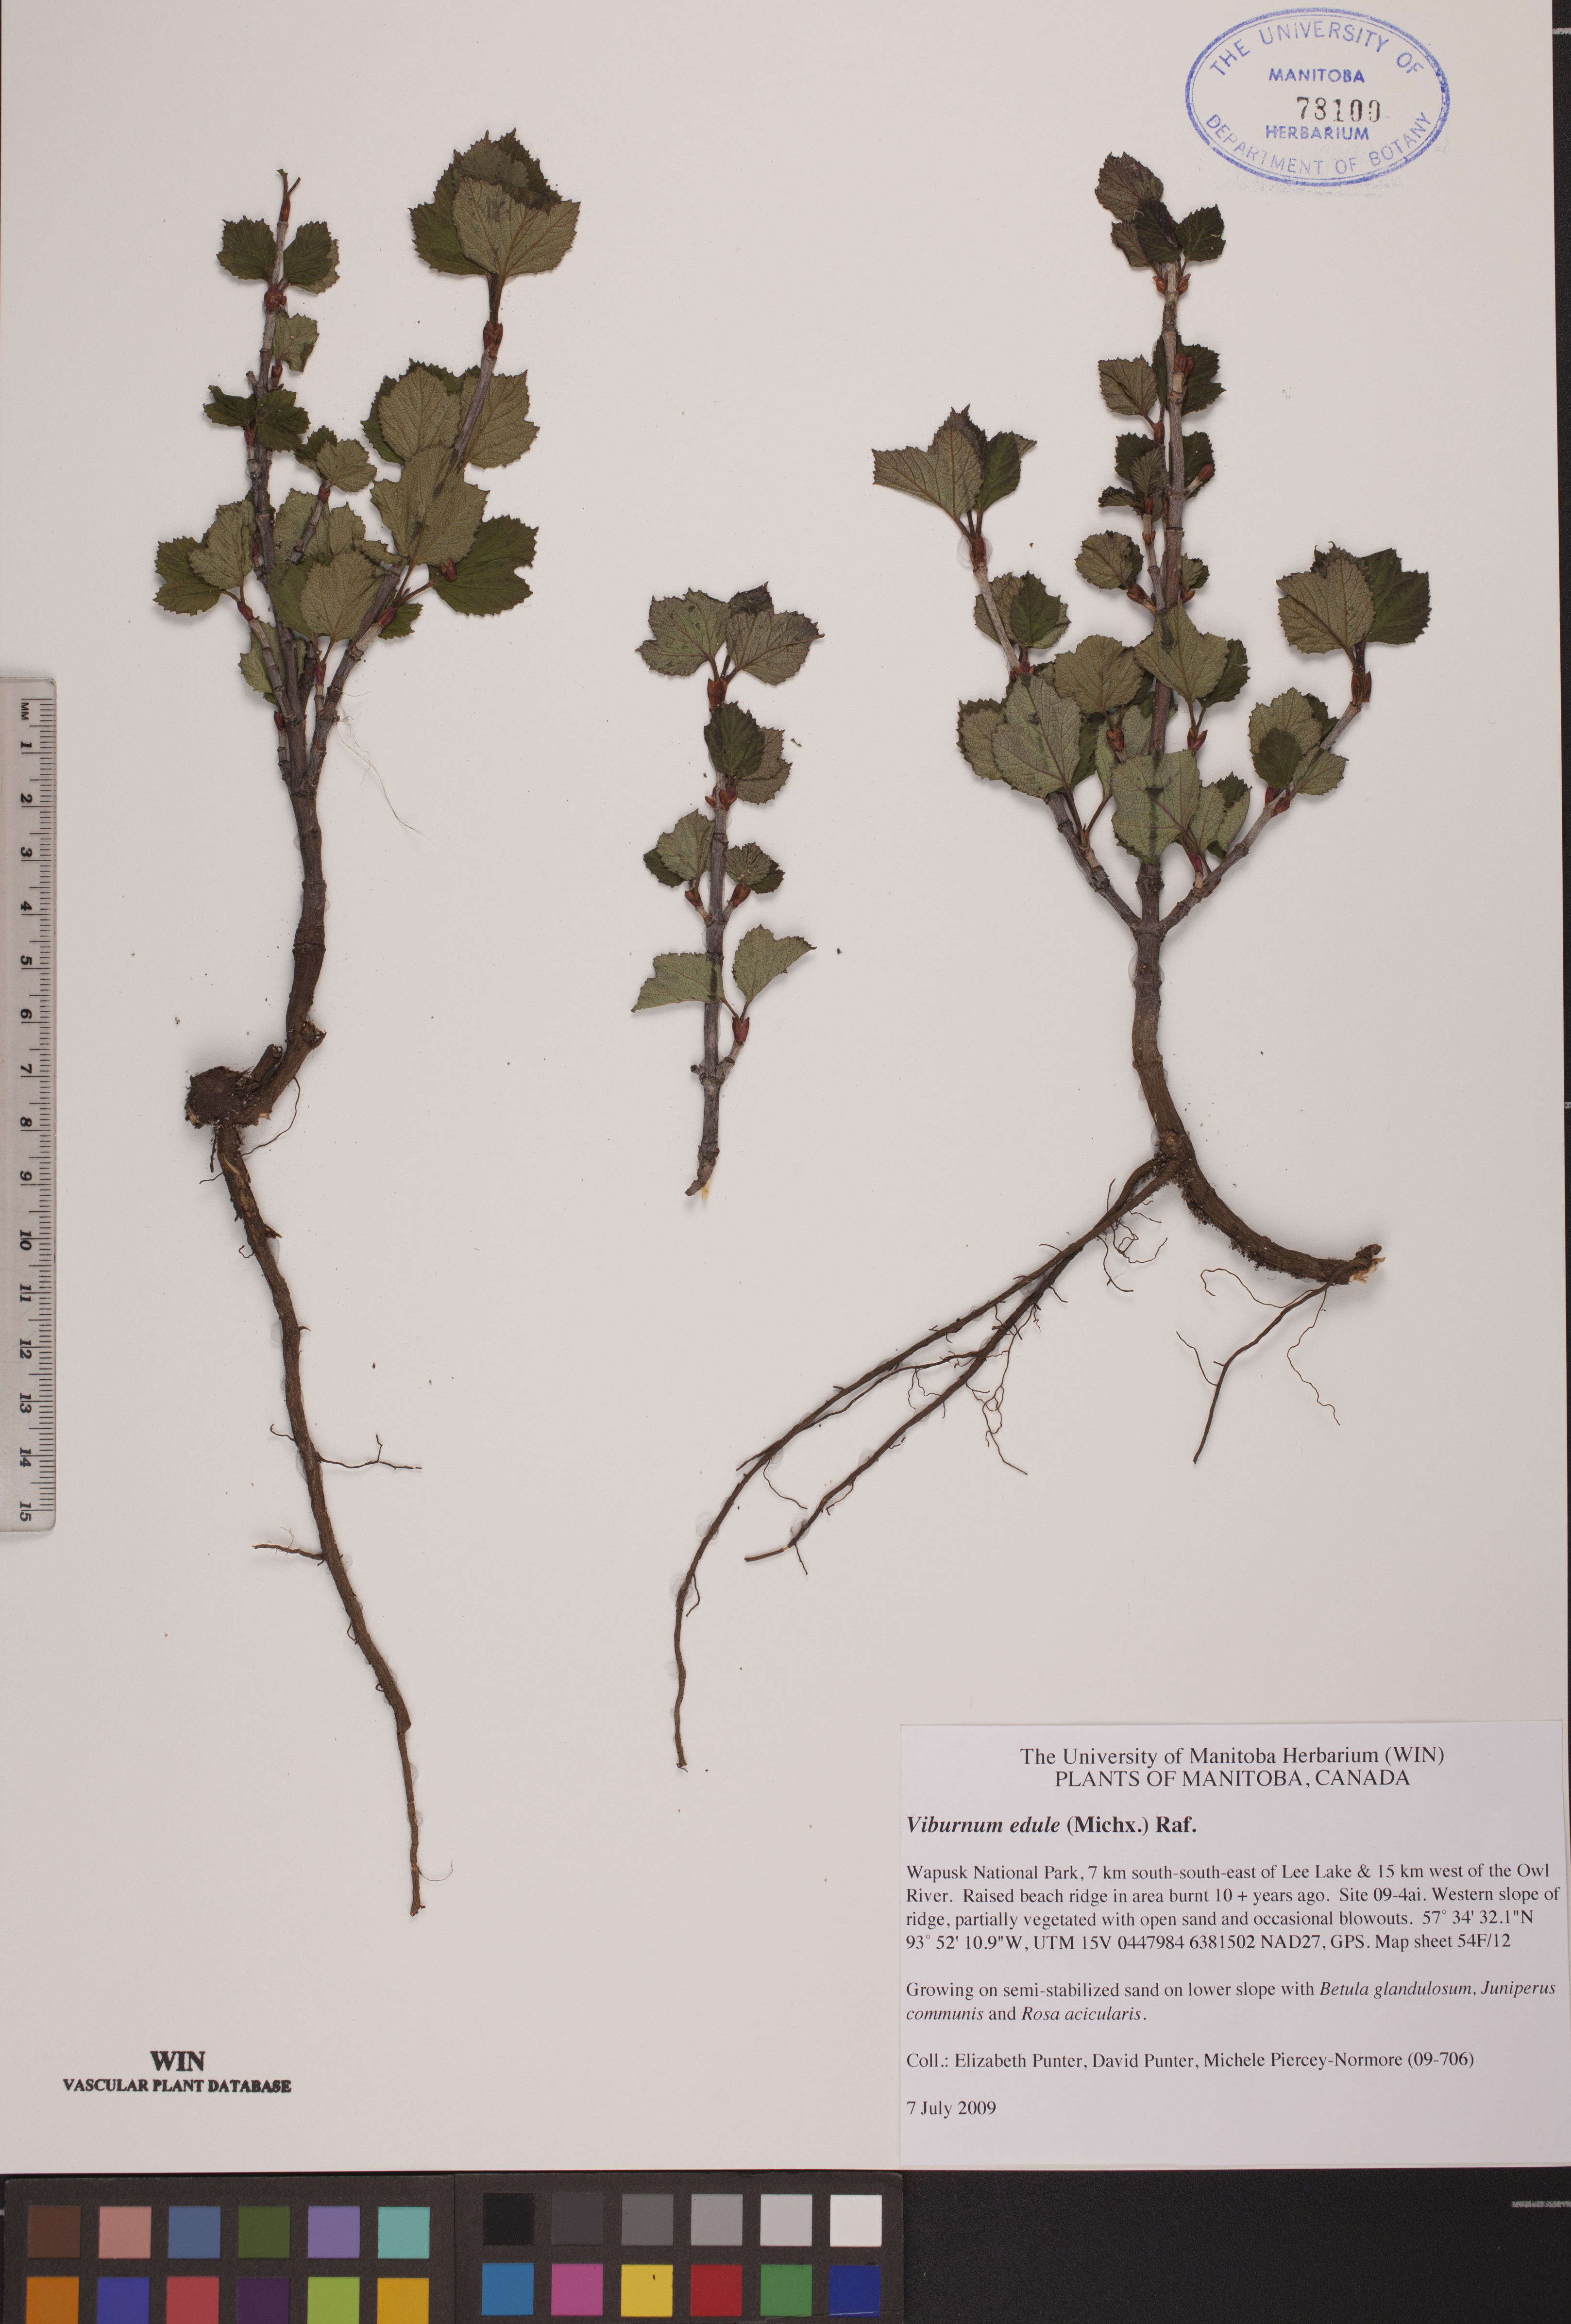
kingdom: Plantae
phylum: Tracheophyta
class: Magnoliopsida
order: Dipsacales
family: Viburnaceae
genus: Viburnum
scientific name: Viburnum edule
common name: Mooseberry
